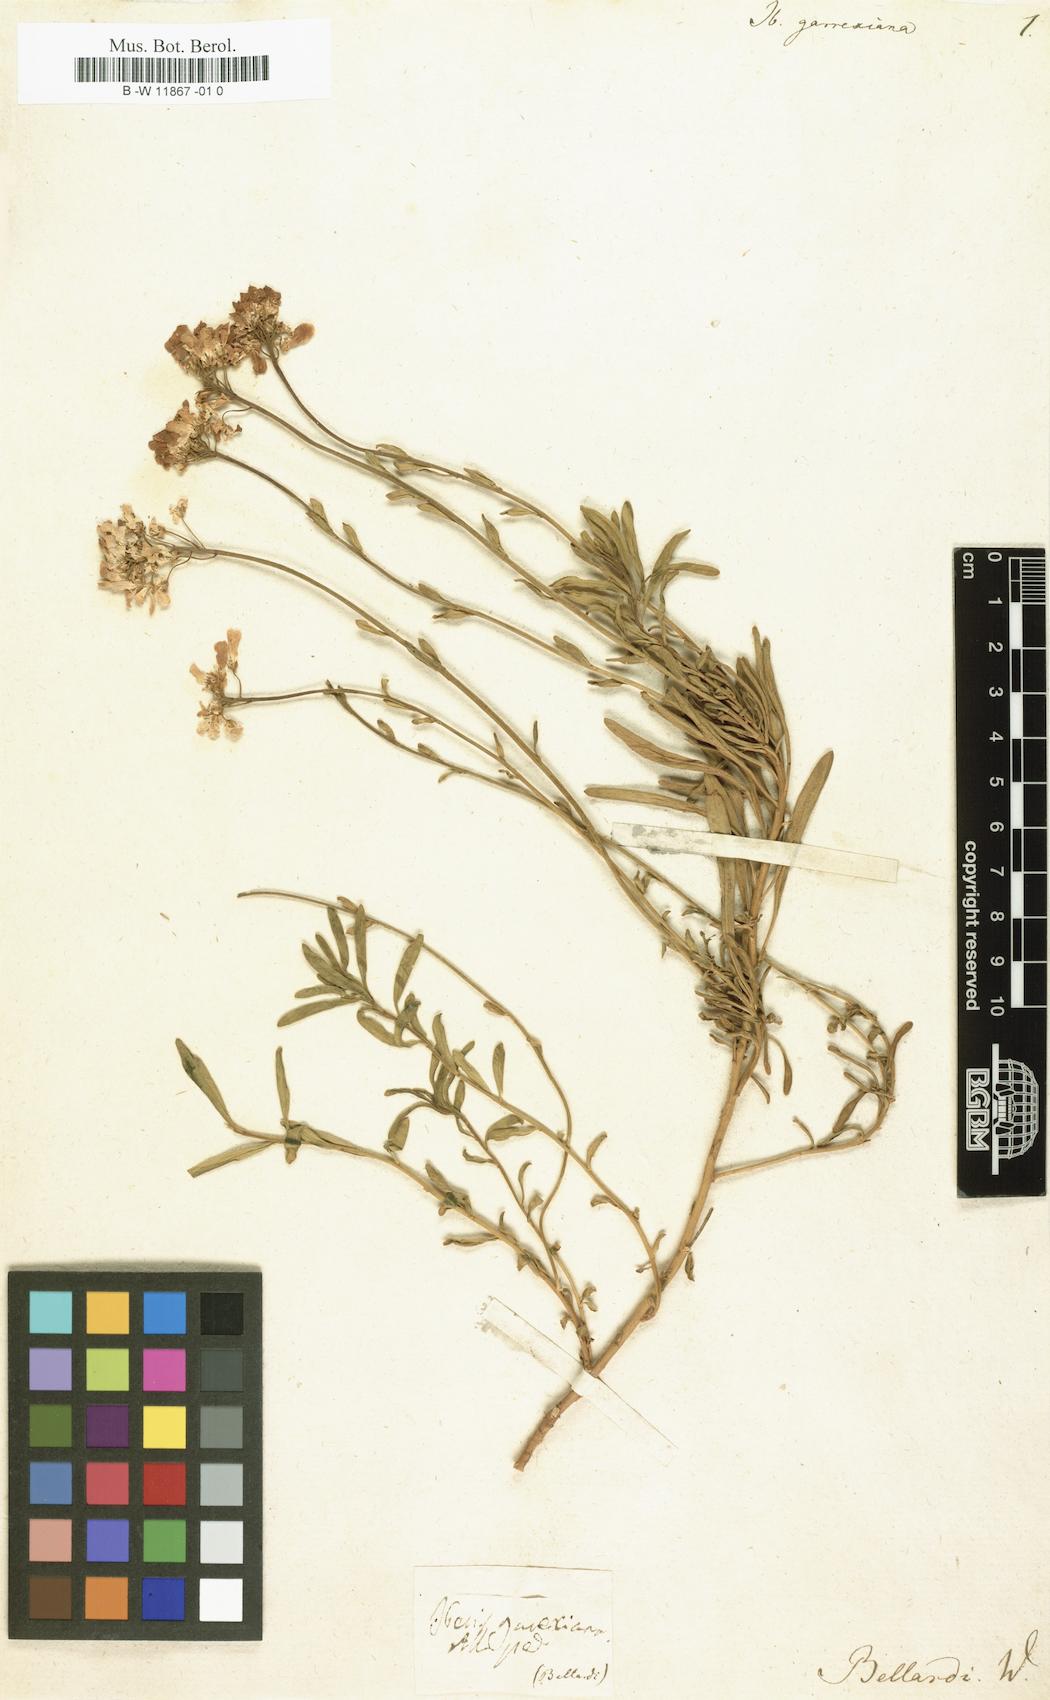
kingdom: Plantae
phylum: Tracheophyta
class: Magnoliopsida
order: Brassicales
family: Brassicaceae
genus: Iberis
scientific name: Iberis
